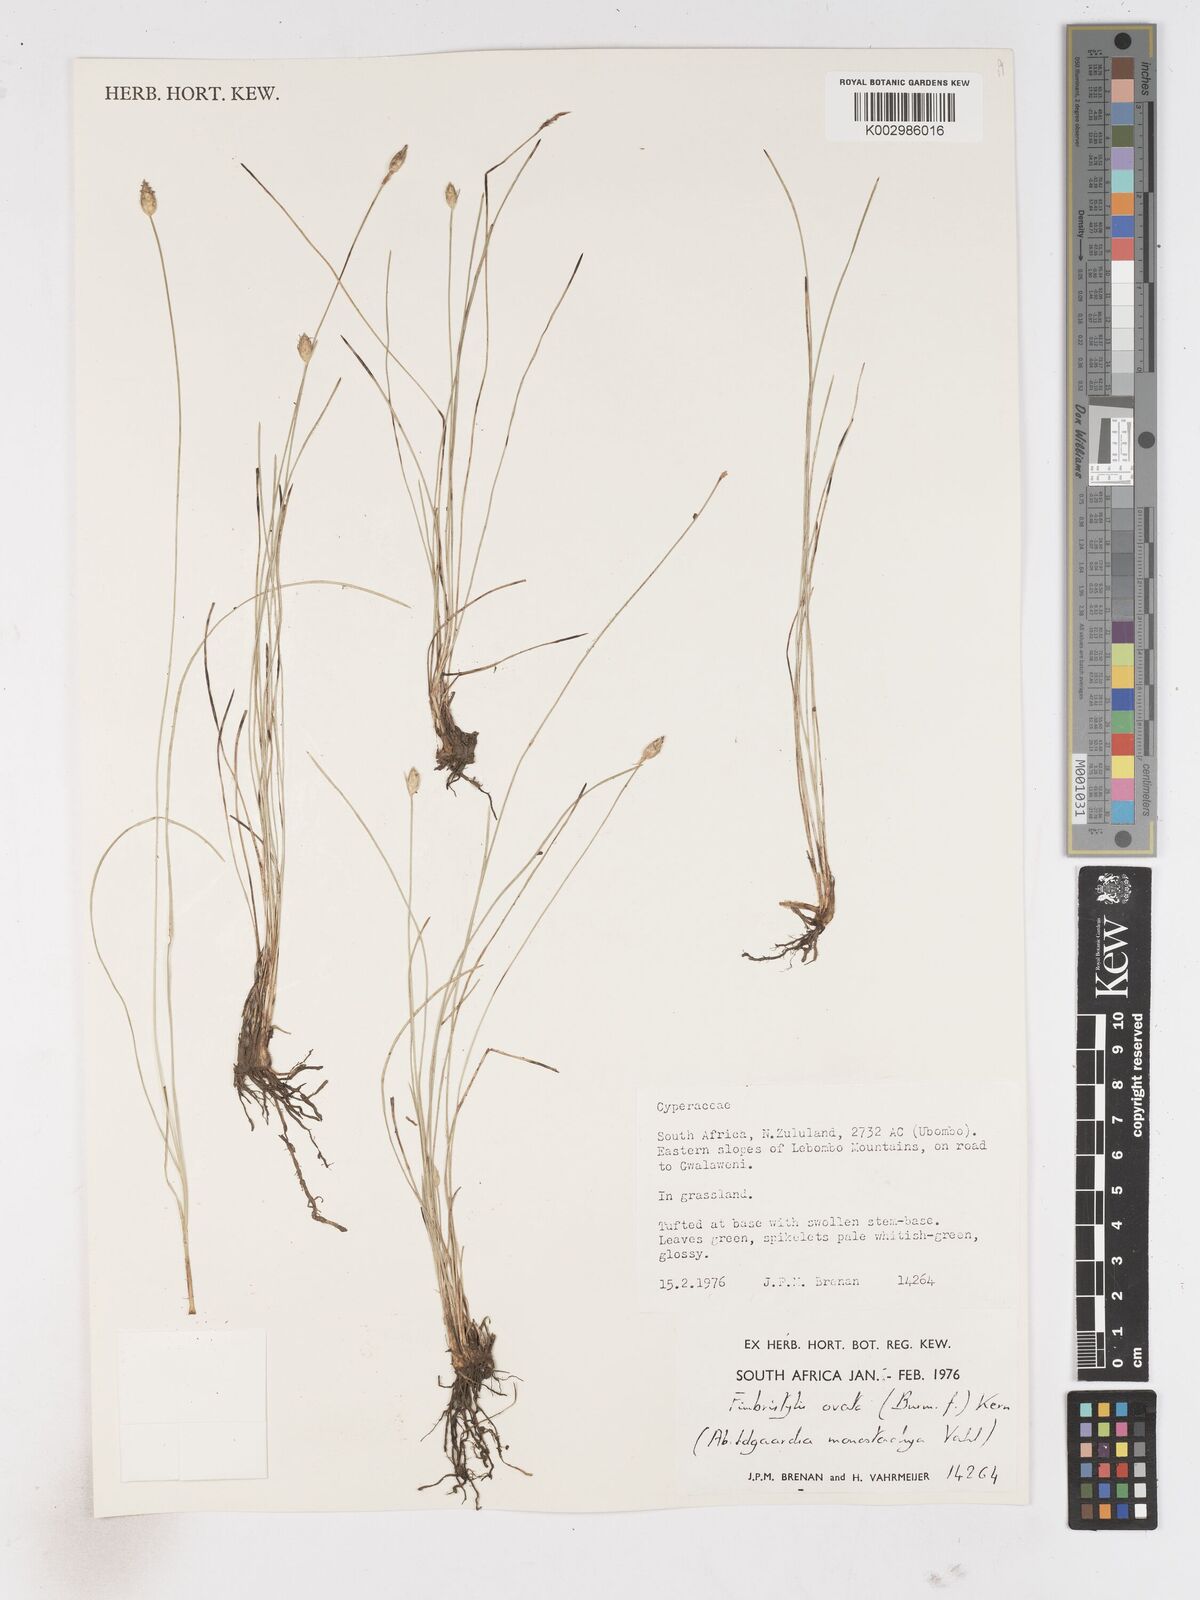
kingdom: Plantae
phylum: Tracheophyta
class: Liliopsida
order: Poales
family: Cyperaceae
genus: Abildgaardia
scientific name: Abildgaardia ovata
